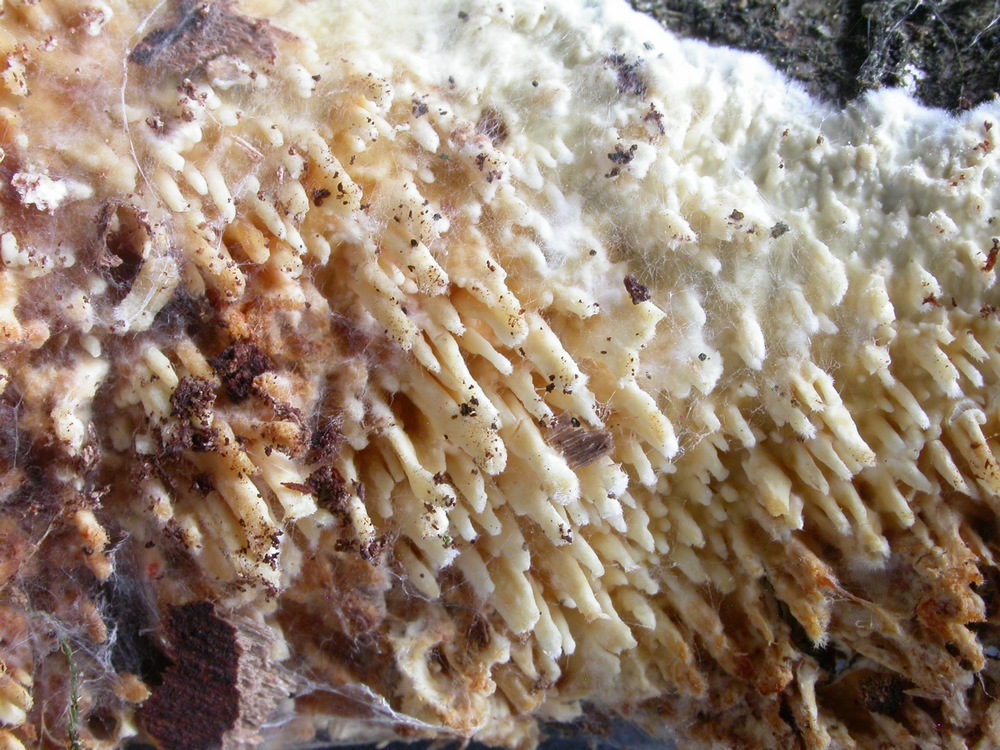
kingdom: Fungi
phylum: Basidiomycota
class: Agaricomycetes
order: Hymenochaetales
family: Schizoporaceae
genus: Xylodon
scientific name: Xylodon radula
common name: grovtandet kalkskind
